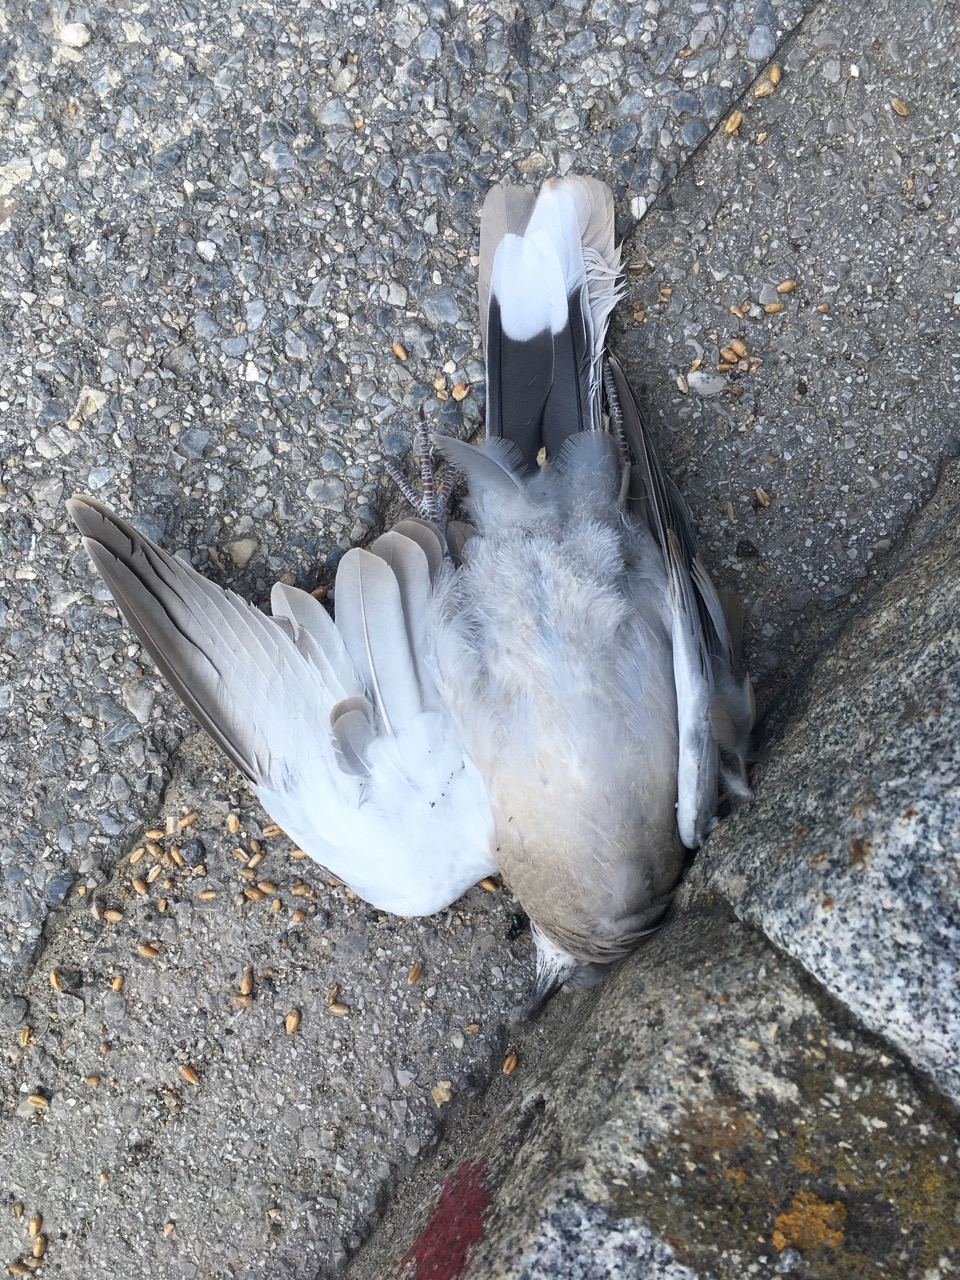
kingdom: Animalia
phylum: Chordata
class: Aves
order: Columbiformes
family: Columbidae
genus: Streptopelia
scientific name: Streptopelia decaocto
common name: Eurasian collared dove
